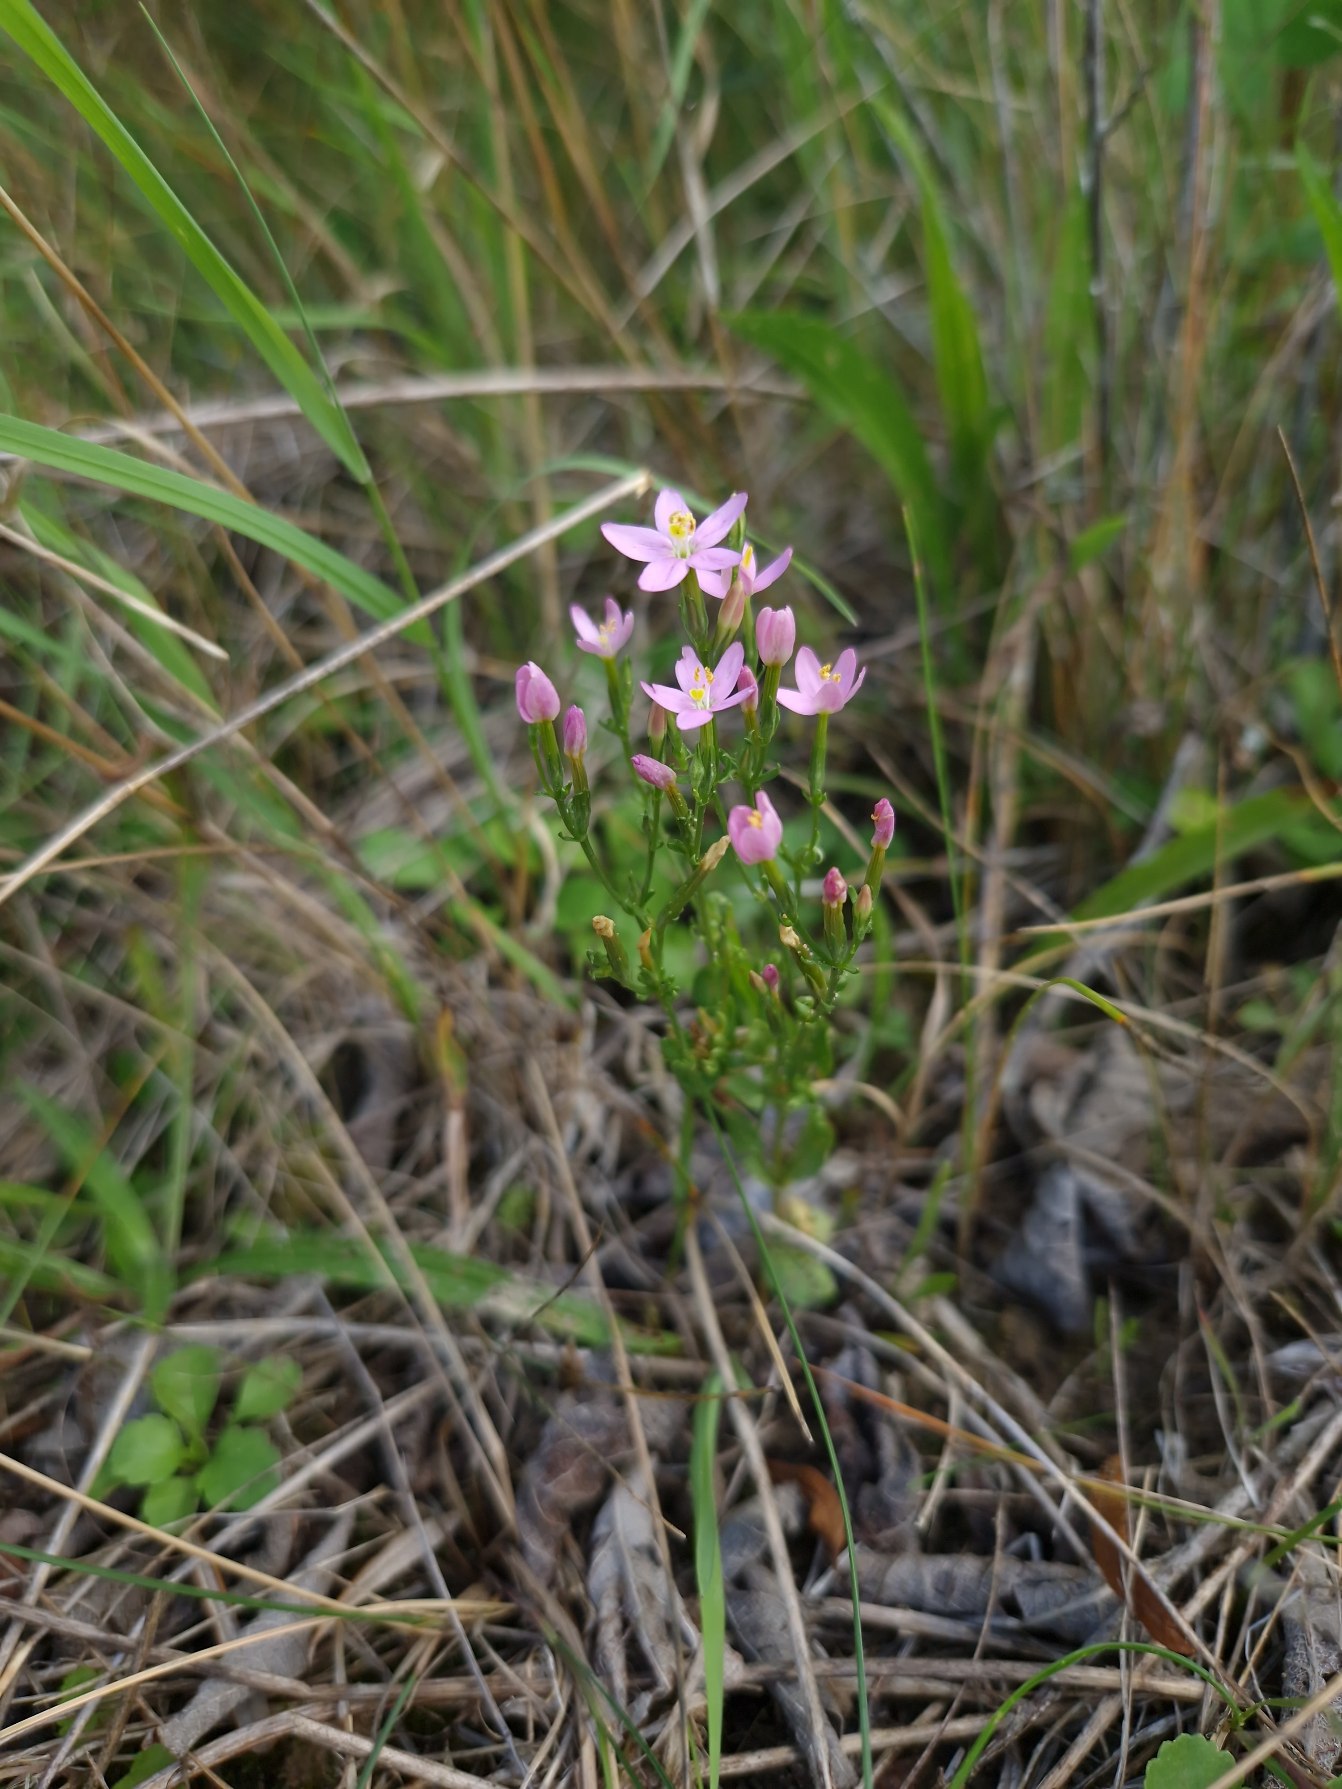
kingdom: Plantae
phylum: Tracheophyta
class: Magnoliopsida
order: Gentianales
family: Gentianaceae
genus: Centaurium
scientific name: Centaurium erythraea
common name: Mark-tusindgylden
